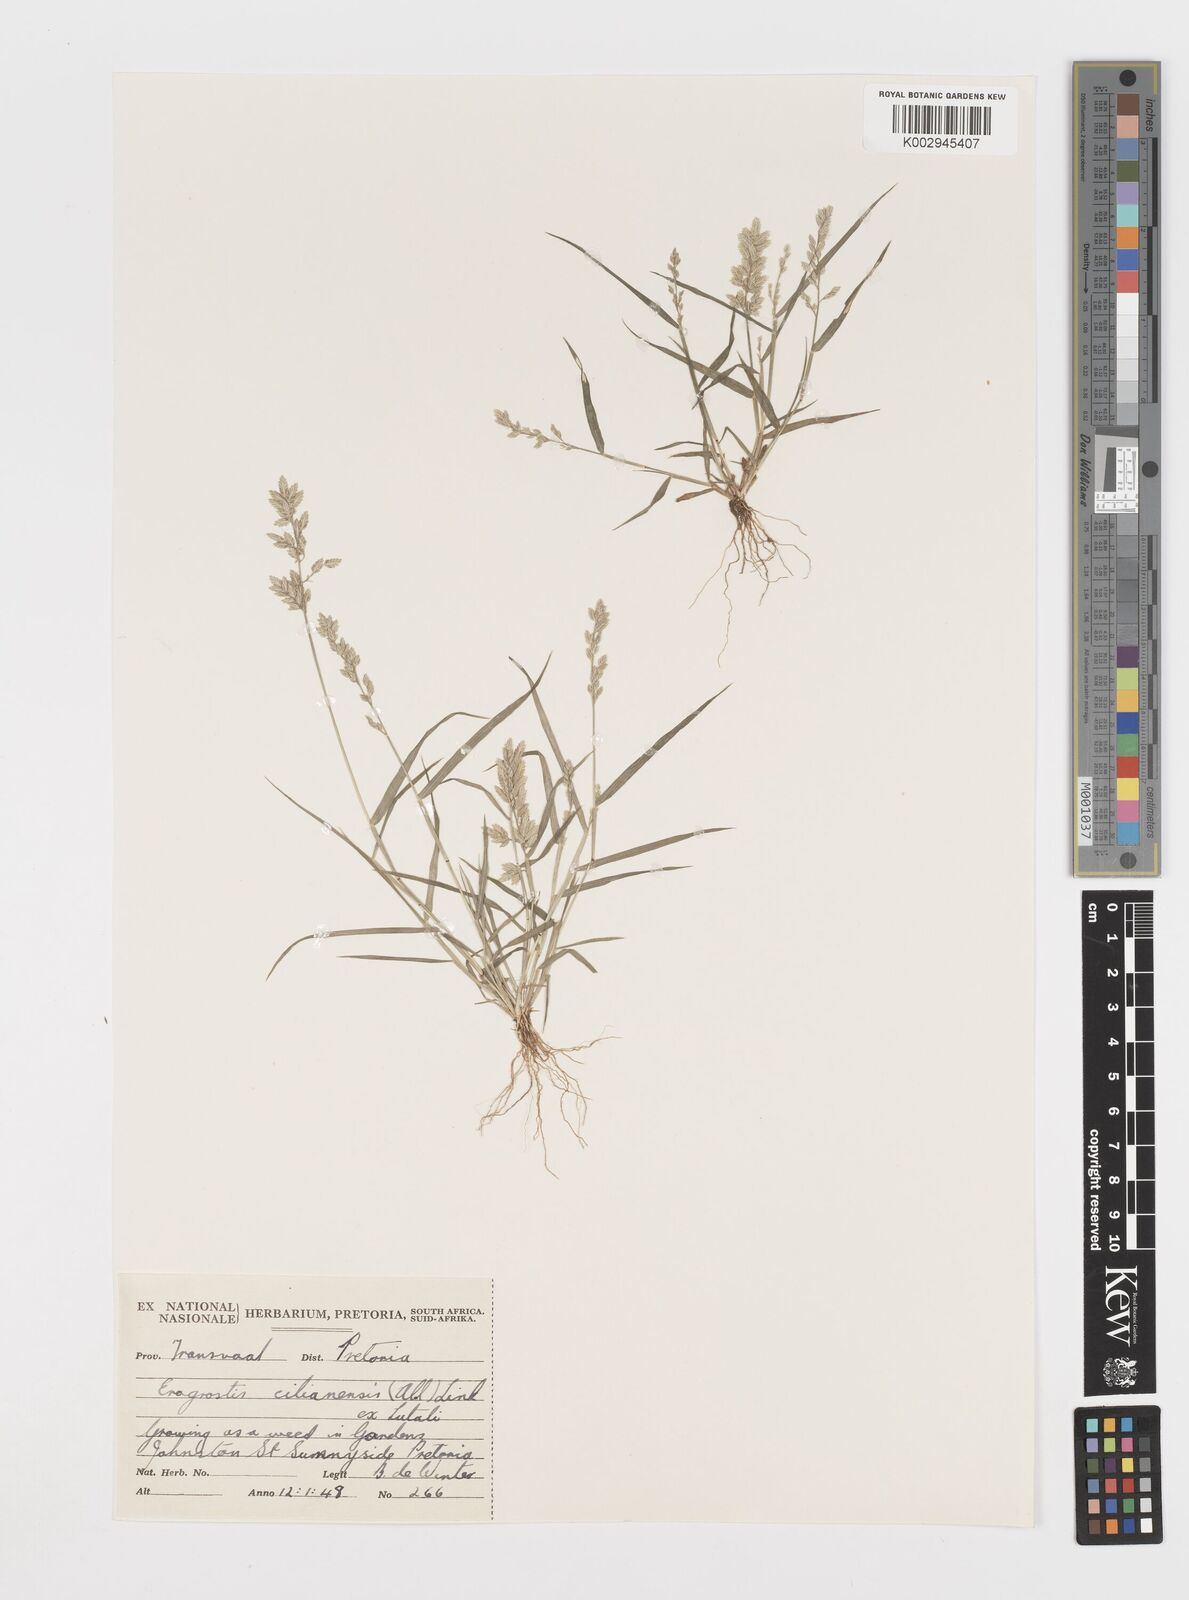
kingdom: Plantae
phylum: Tracheophyta
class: Liliopsida
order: Poales
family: Poaceae
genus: Eragrostis
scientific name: Eragrostis cilianensis
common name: Stinkgrass
